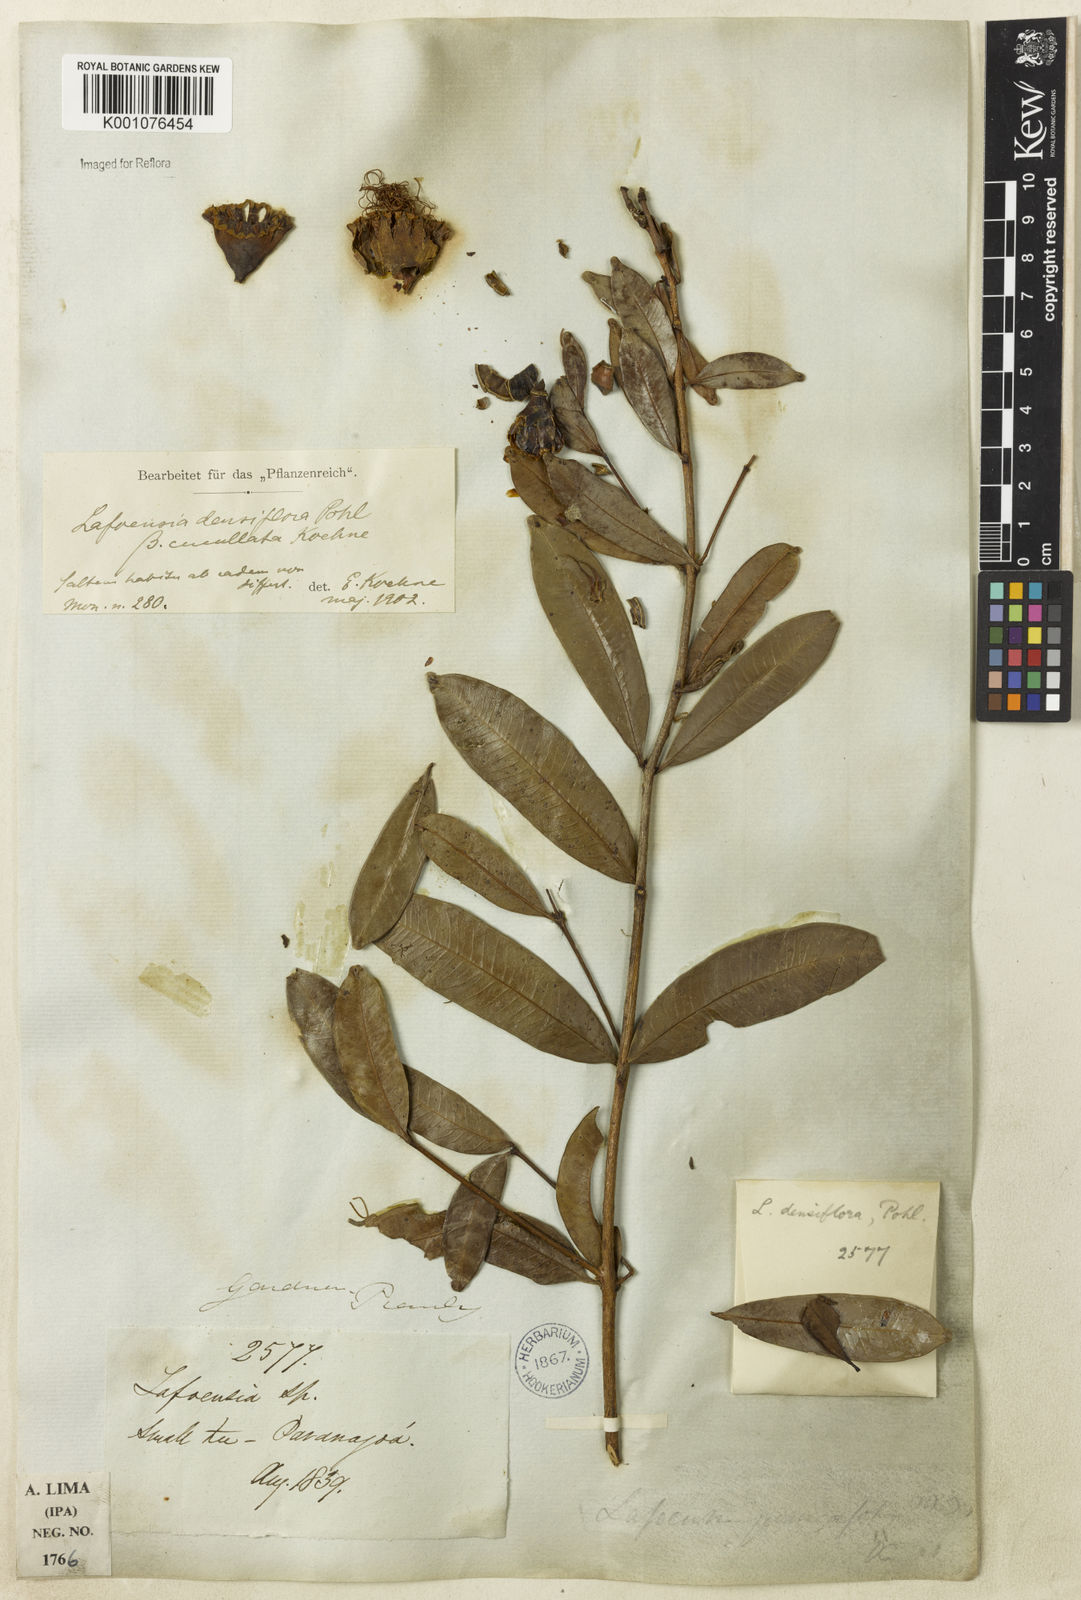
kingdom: Plantae
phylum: Tracheophyta
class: Magnoliopsida
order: Myrtales
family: Lythraceae
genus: Lafoensia
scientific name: Lafoensia vandelliana
